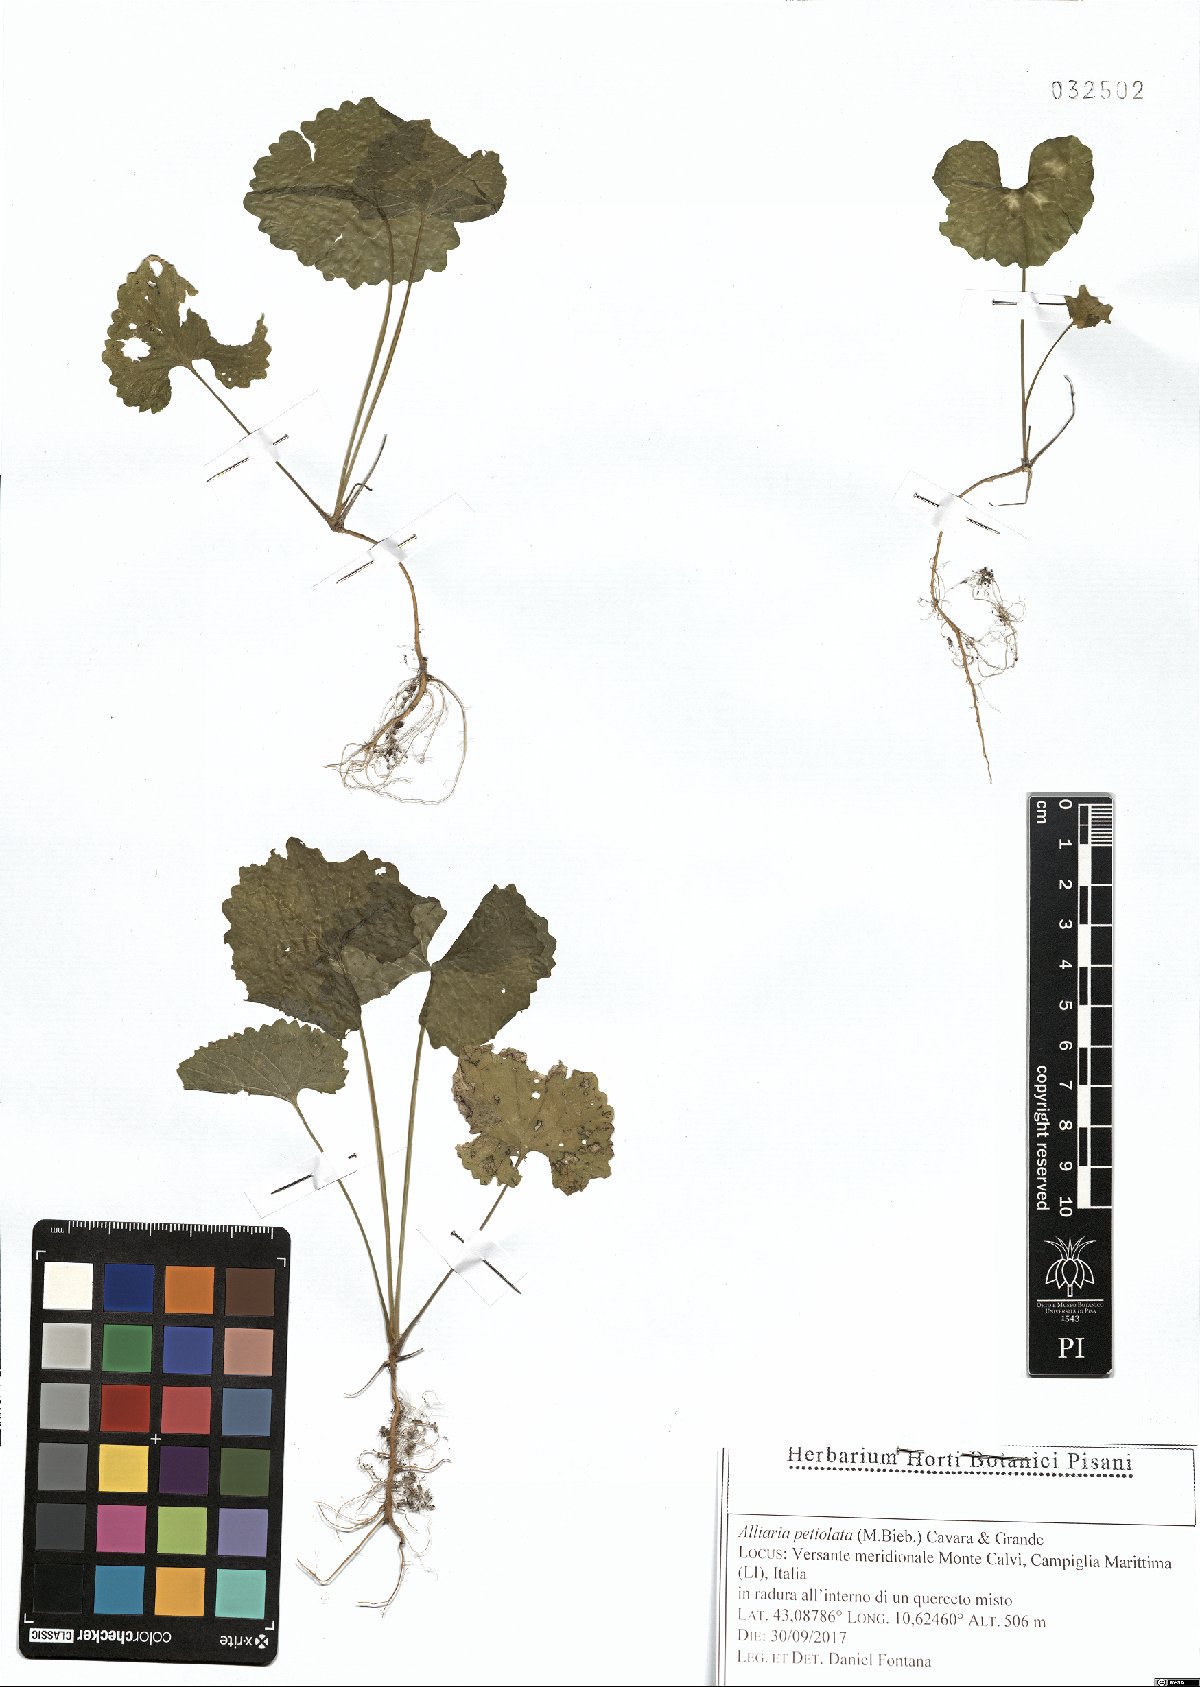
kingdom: Plantae
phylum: Tracheophyta
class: Magnoliopsida
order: Brassicales
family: Brassicaceae
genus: Alliaria
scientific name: Alliaria petiolata
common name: Garlic mustard
